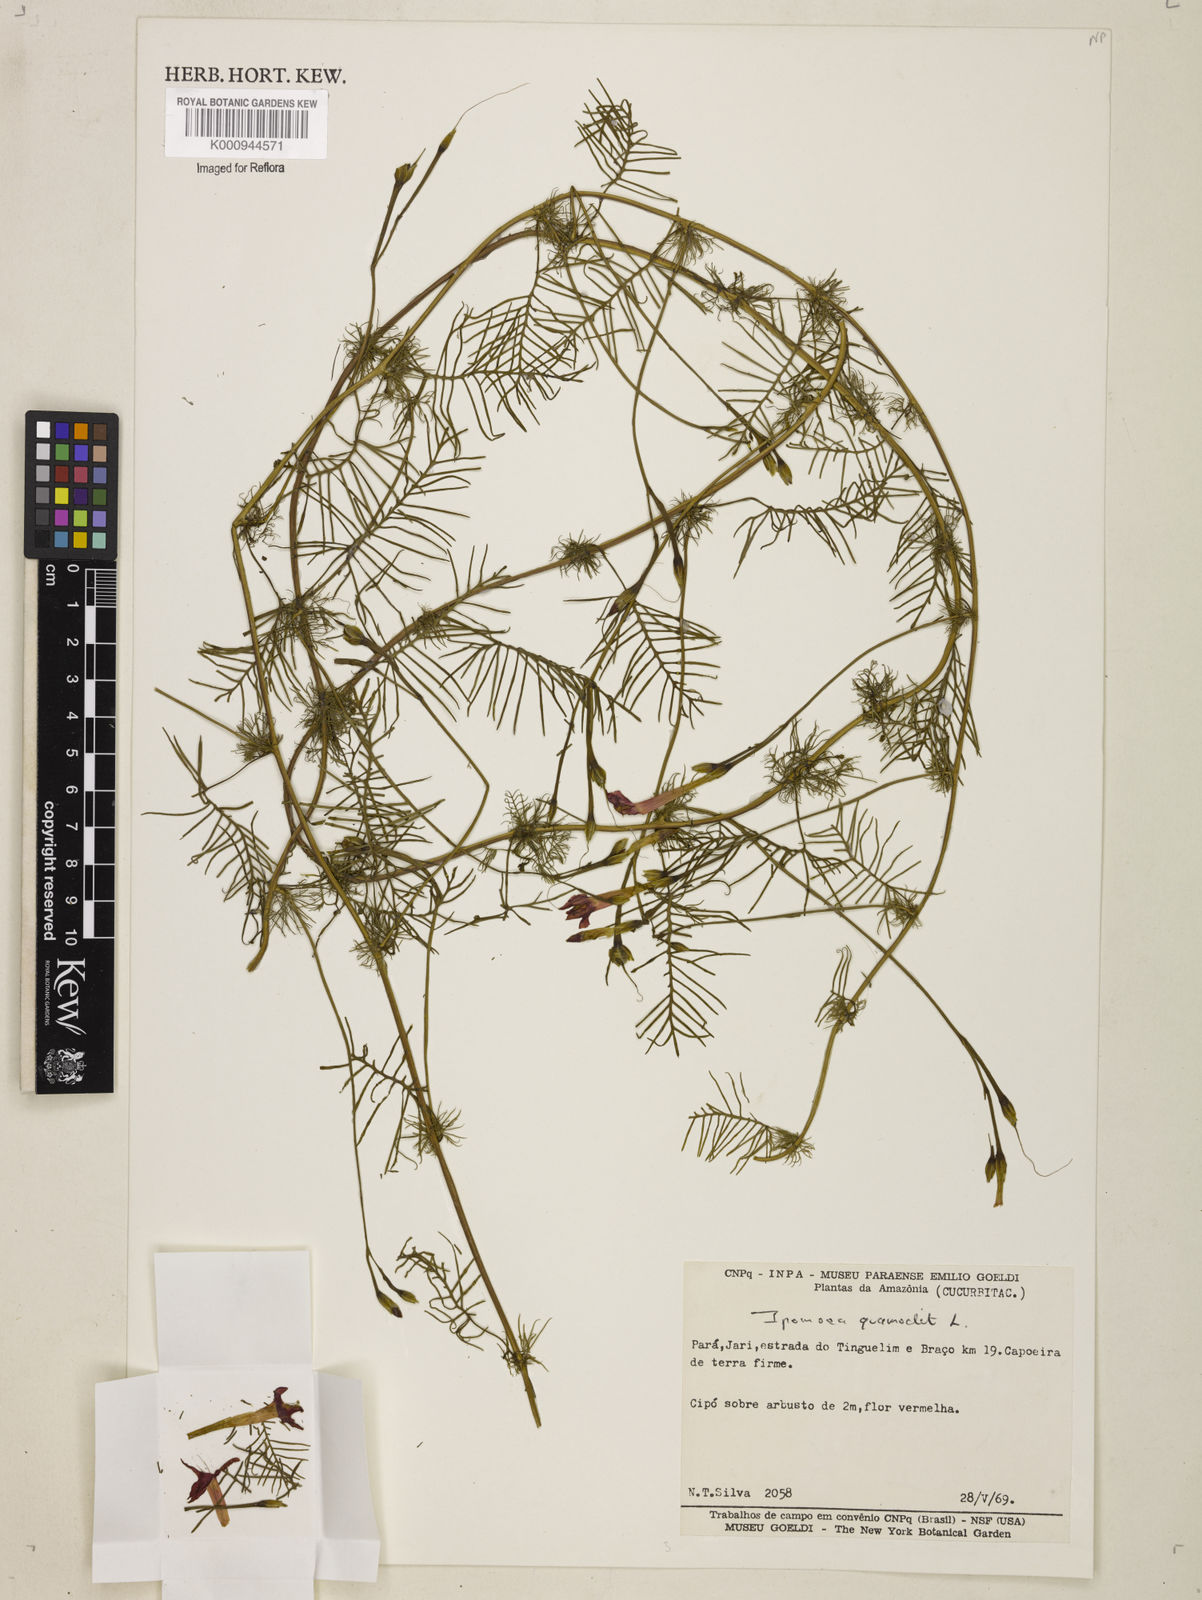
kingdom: Plantae
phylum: Tracheophyta
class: Magnoliopsida
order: Solanales
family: Convolvulaceae
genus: Ipomoea
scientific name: Ipomoea quamoclit
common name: Cypress vine
